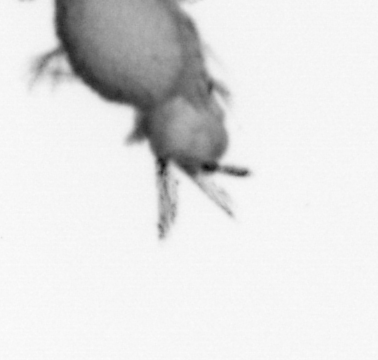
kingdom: Animalia
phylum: Annelida
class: Polychaeta
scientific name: Polychaeta
